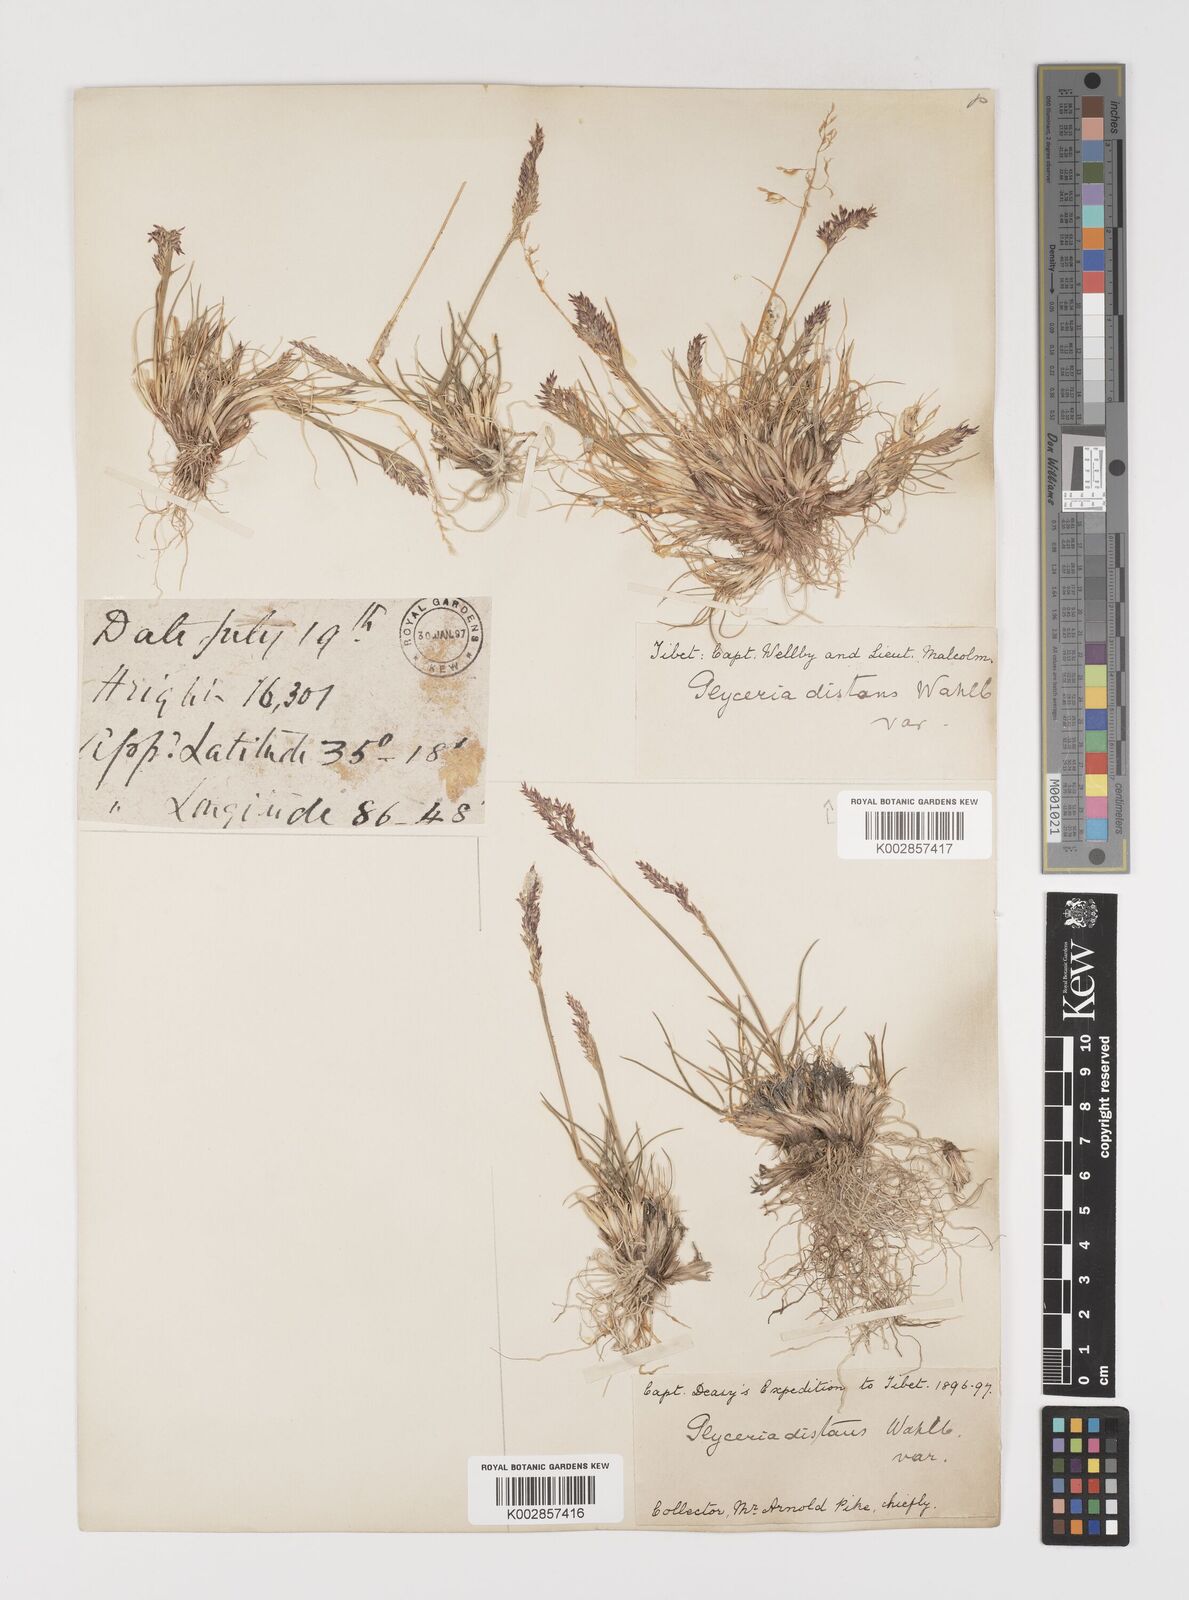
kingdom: Plantae
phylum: Tracheophyta
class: Liliopsida
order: Poales
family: Poaceae
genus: Puccinellia
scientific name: Puccinellia distans
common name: Weeping alkaligrass
